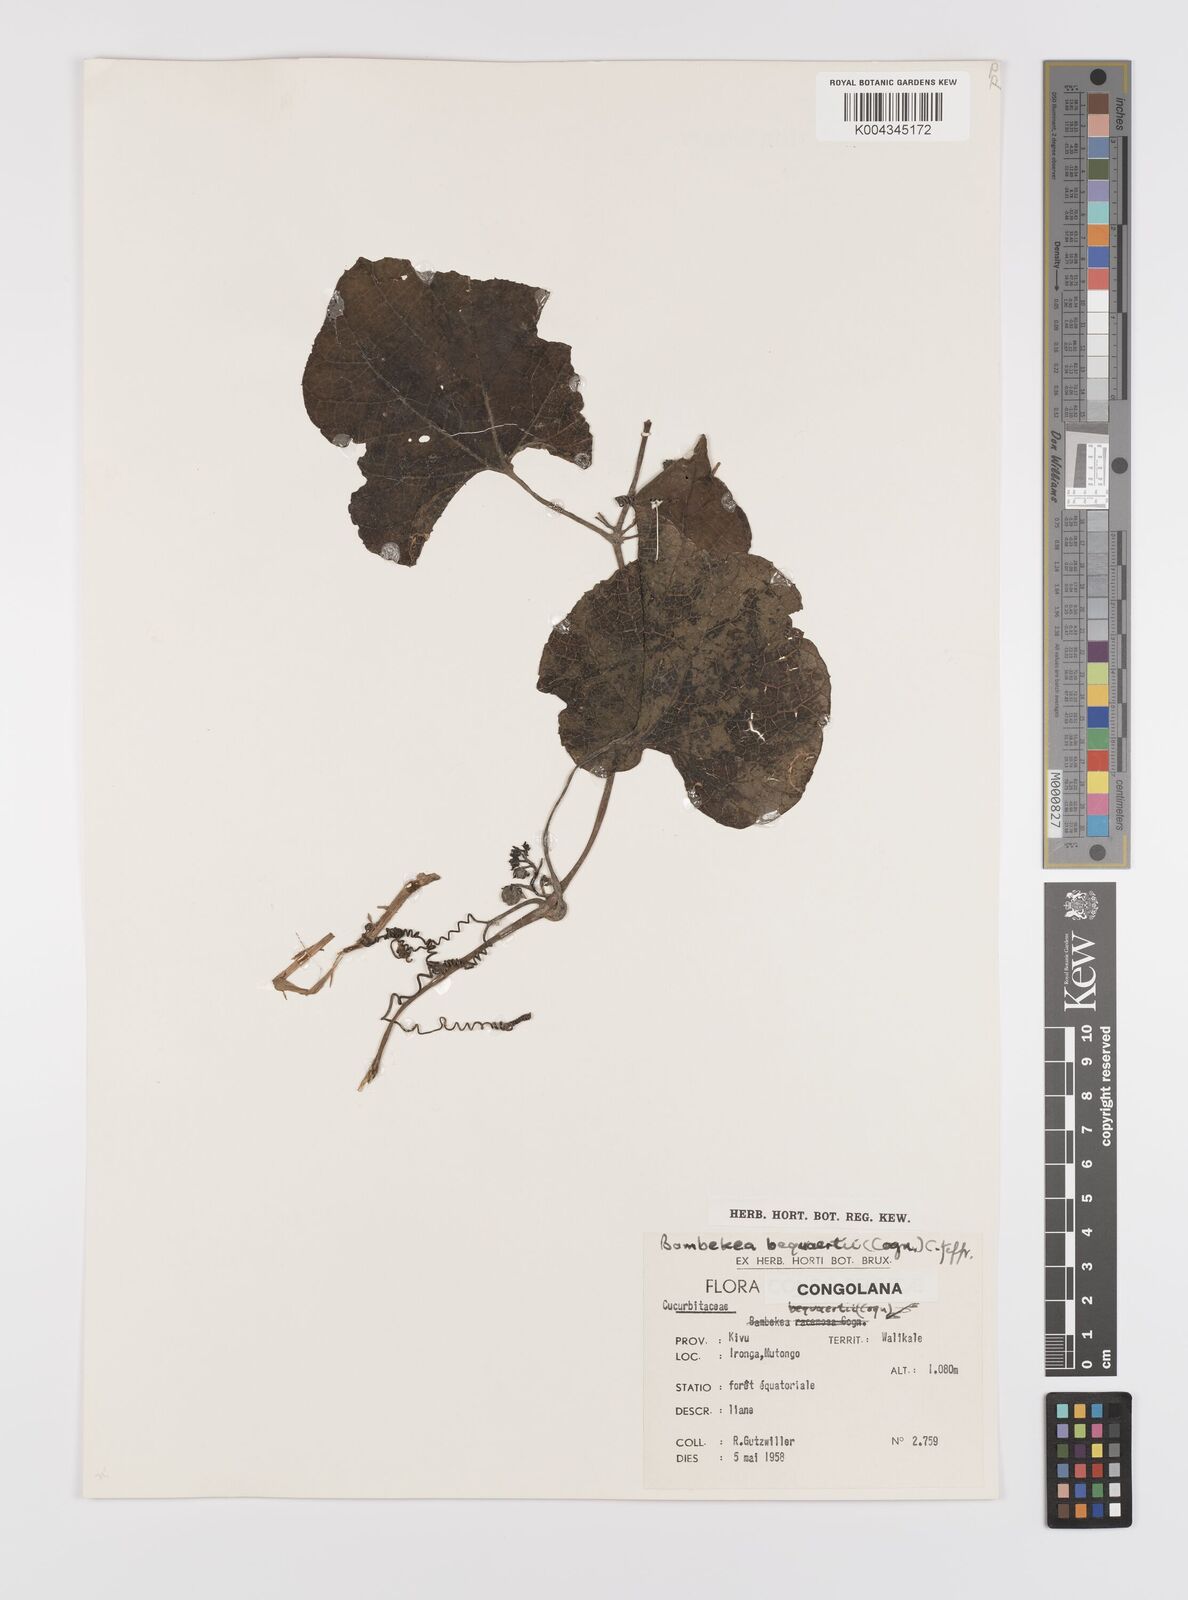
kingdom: Plantae
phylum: Tracheophyta
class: Magnoliopsida
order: Cucurbitales
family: Cucurbitaceae
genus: Bambekea
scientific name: Bambekea racemosa
